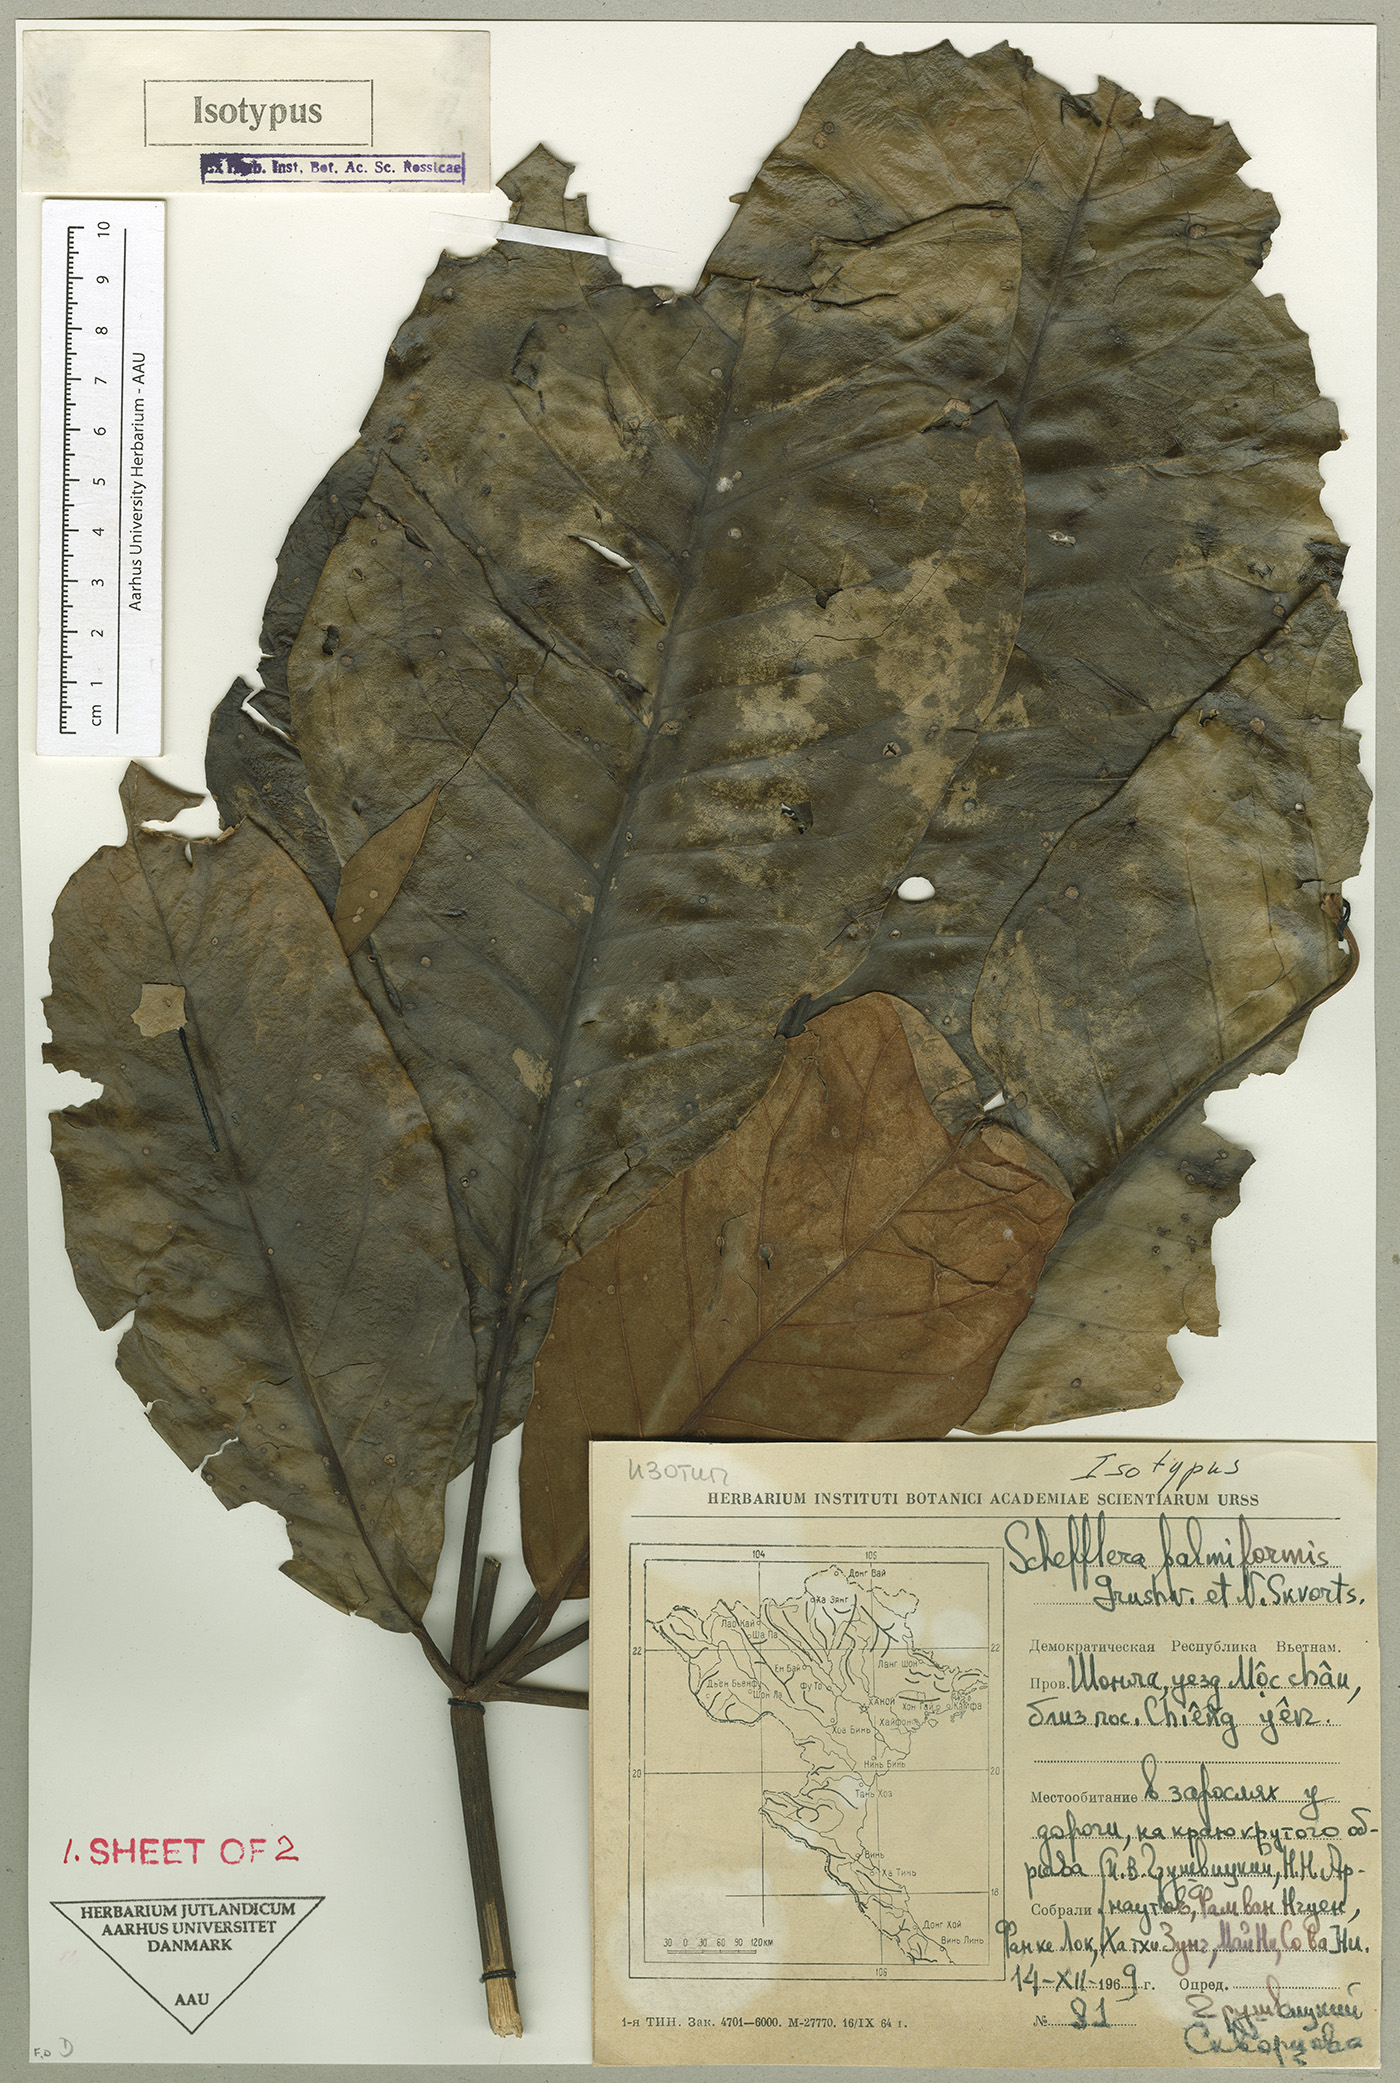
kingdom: Plantae
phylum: Tracheophyta
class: Magnoliopsida
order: Apiales
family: Araliaceae
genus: Heptapleurum
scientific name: Heptapleurum palmiforme
